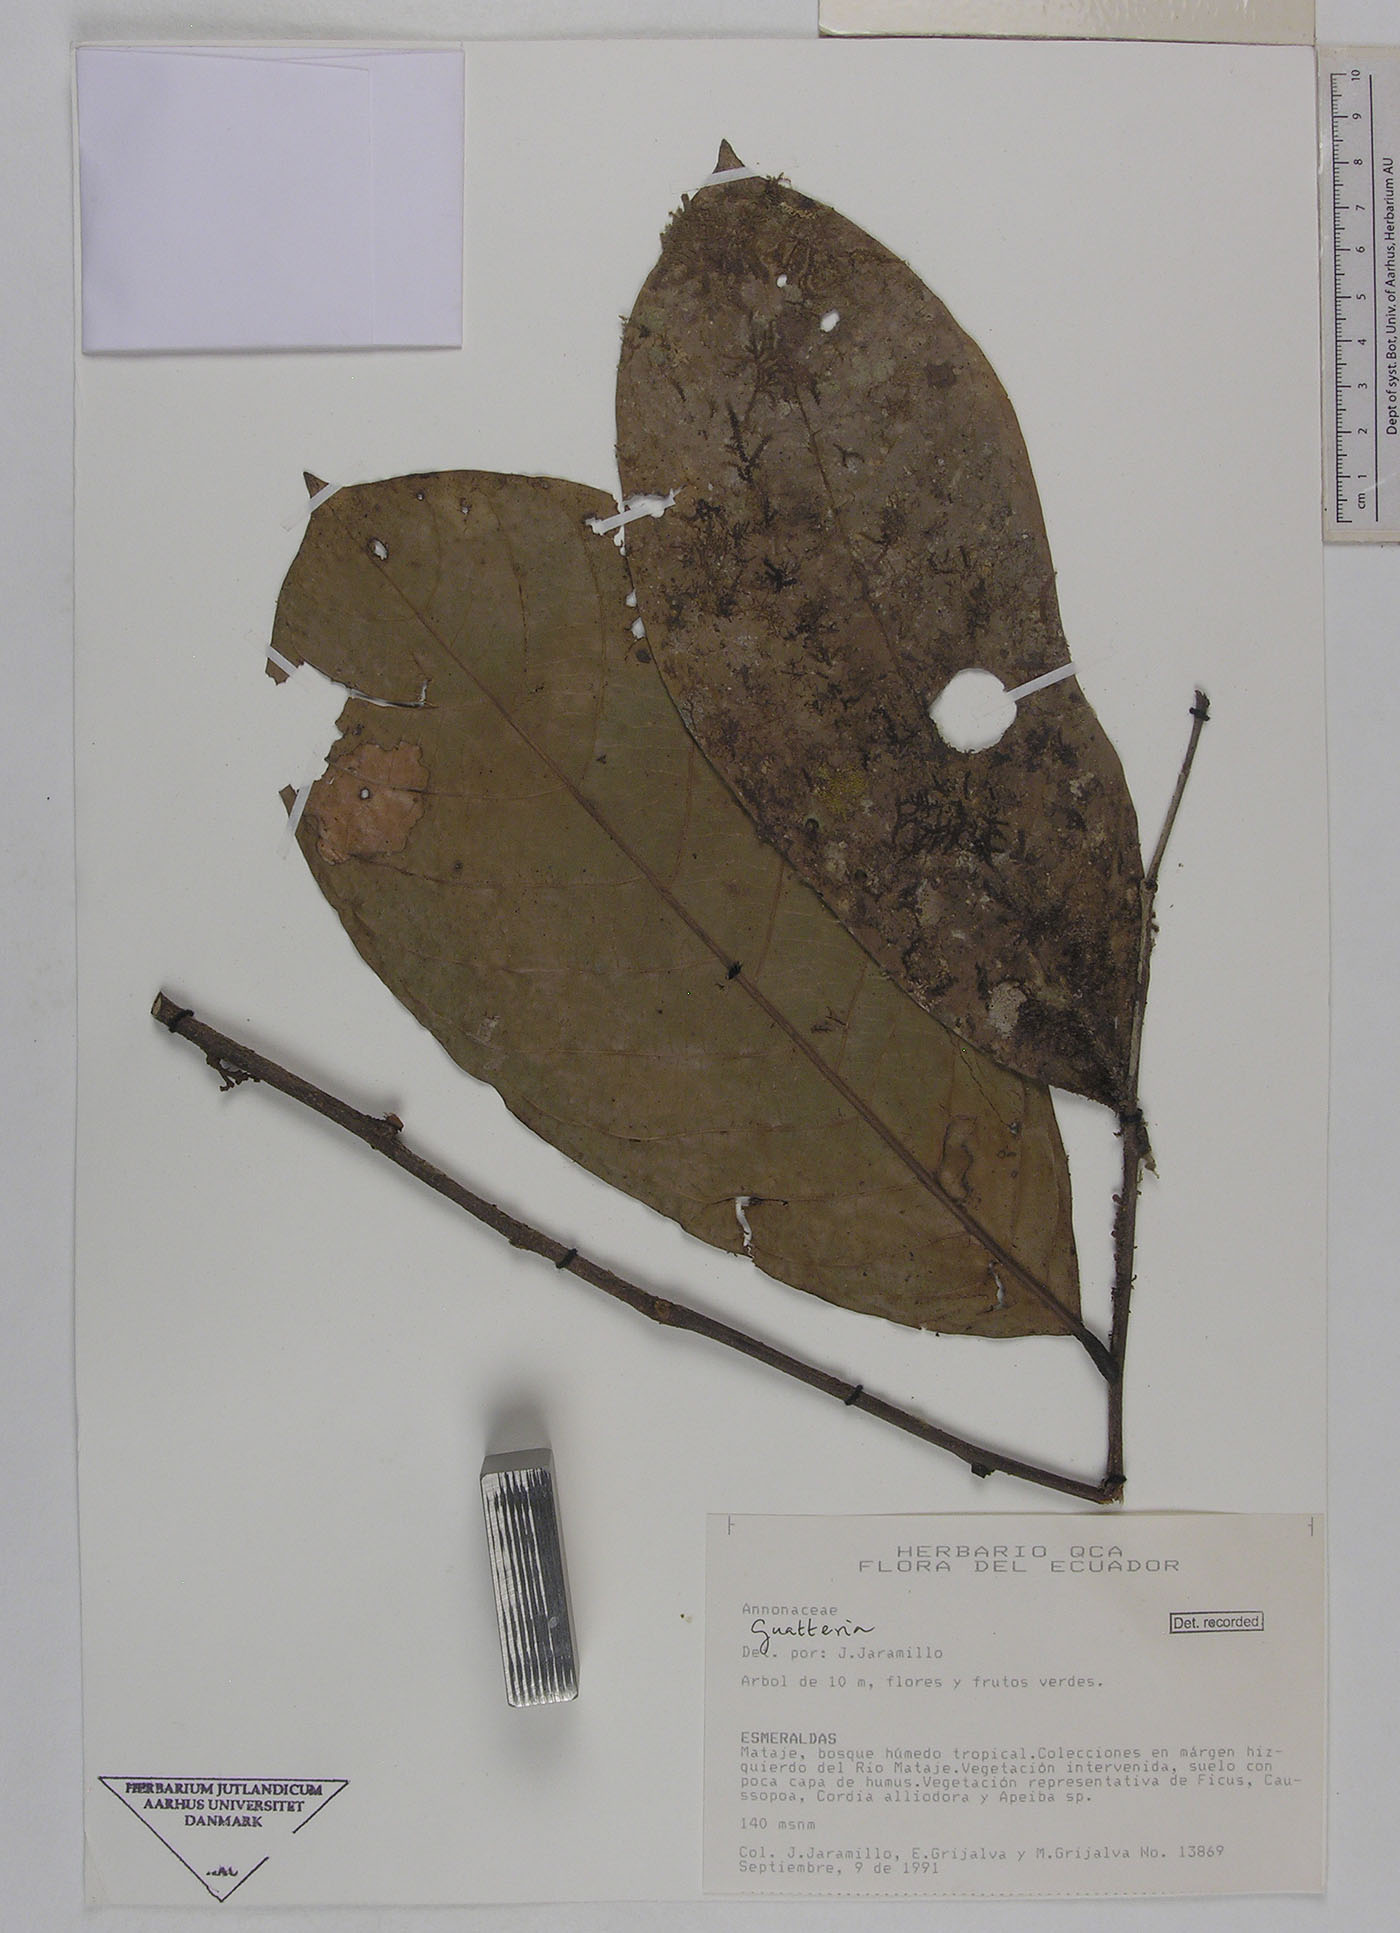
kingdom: Plantae
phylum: Tracheophyta
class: Magnoliopsida
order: Magnoliales
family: Annonaceae
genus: Unonopsis
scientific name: Unonopsis esmeraldae
